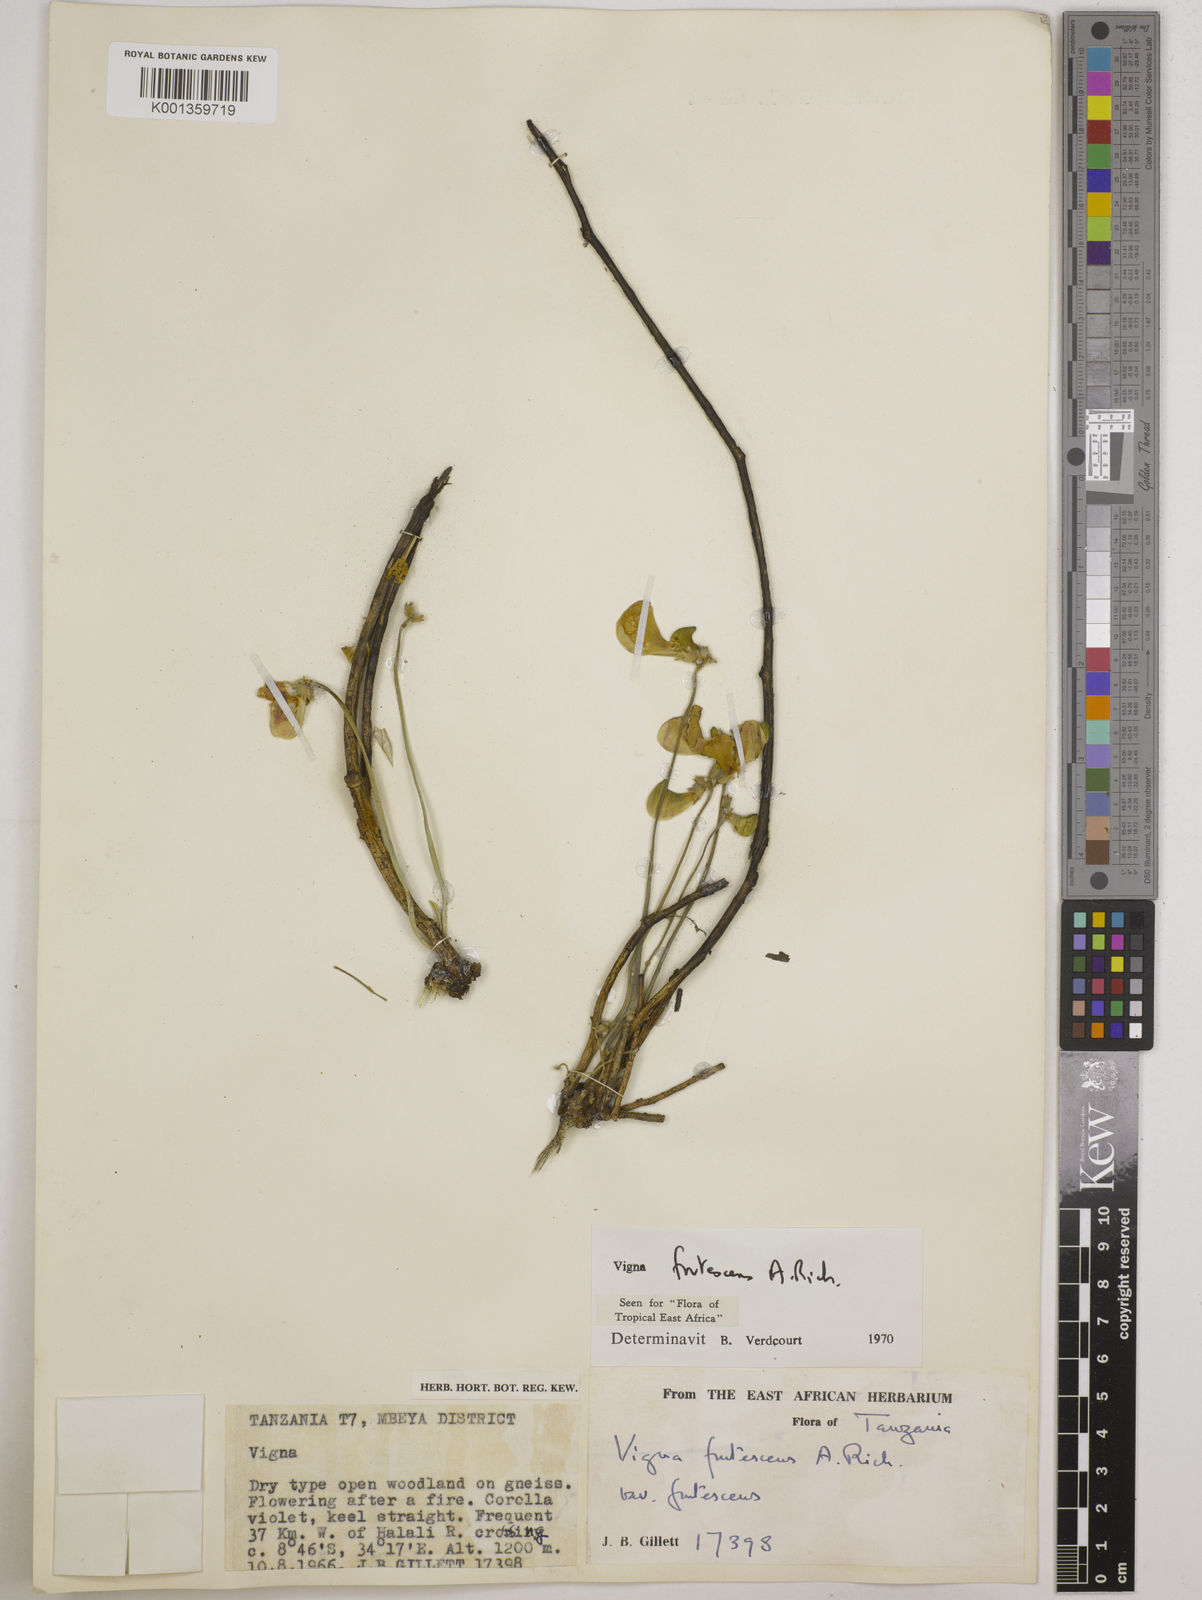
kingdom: Plantae
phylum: Tracheophyta
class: Magnoliopsida
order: Fabales
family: Fabaceae
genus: Vigna
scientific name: Vigna frutescens
